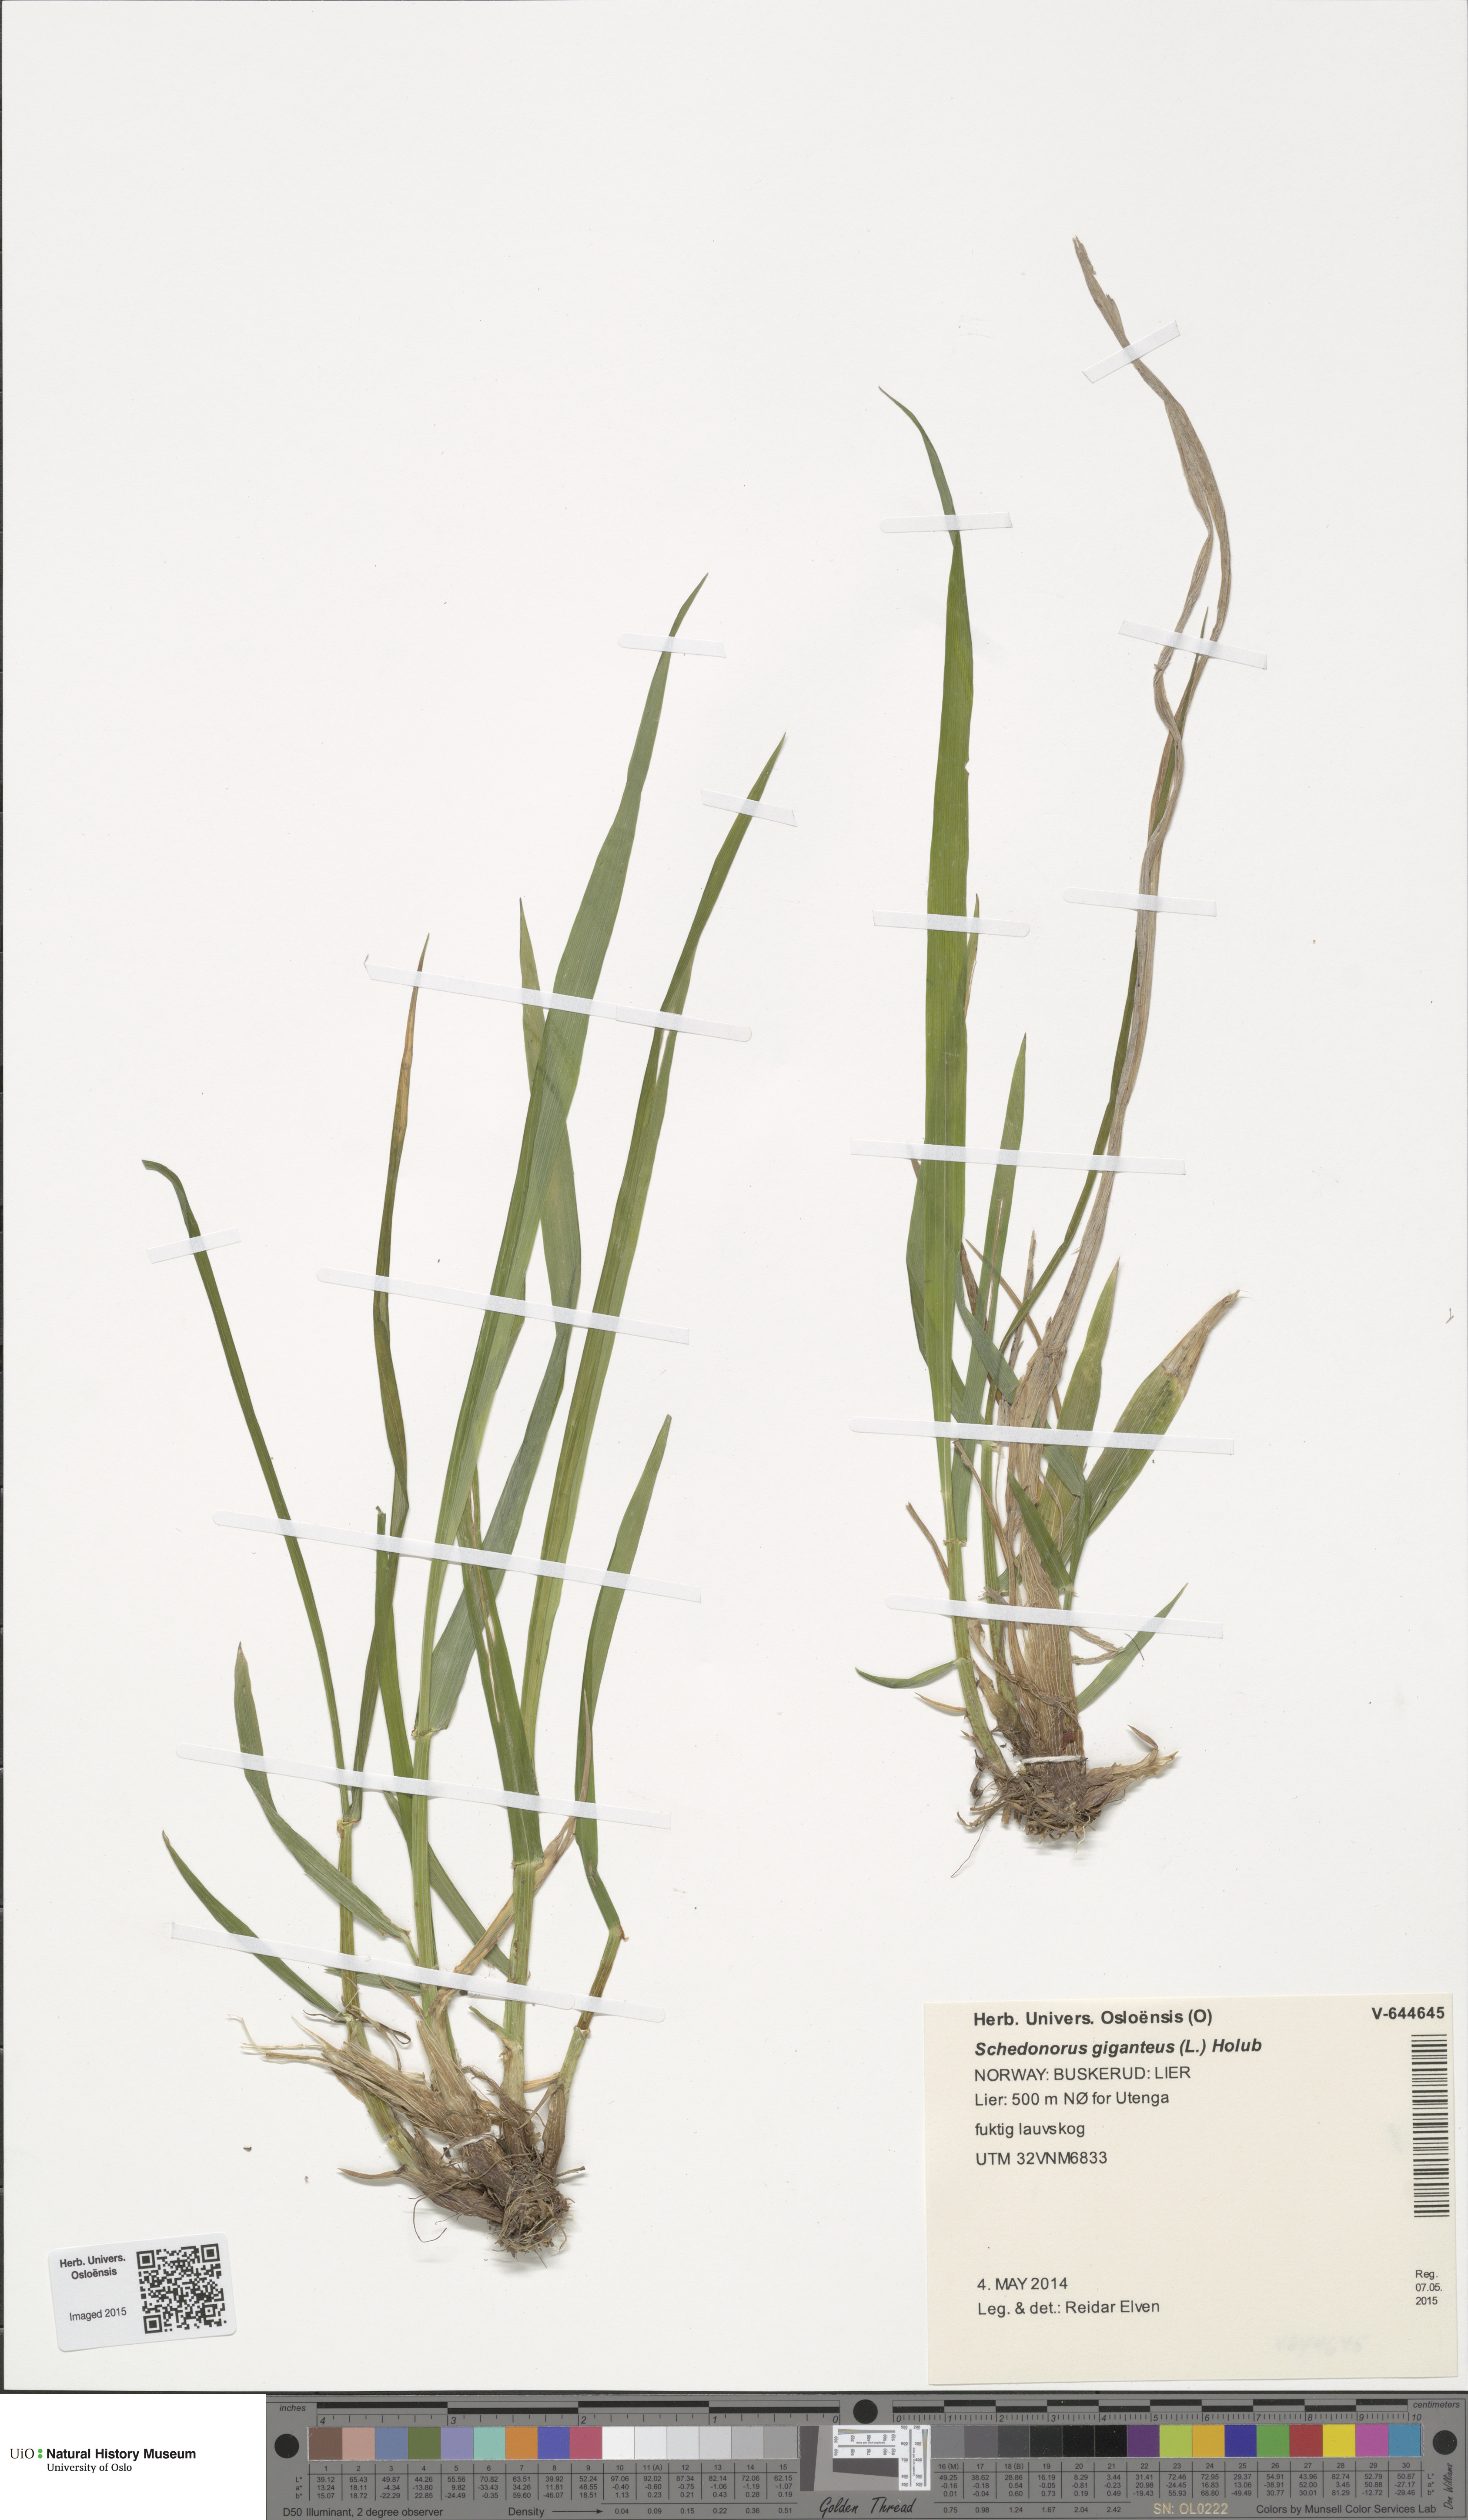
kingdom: Plantae
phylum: Tracheophyta
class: Liliopsida
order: Poales
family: Poaceae
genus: Lolium
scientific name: Lolium giganteum
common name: Giant fescue
